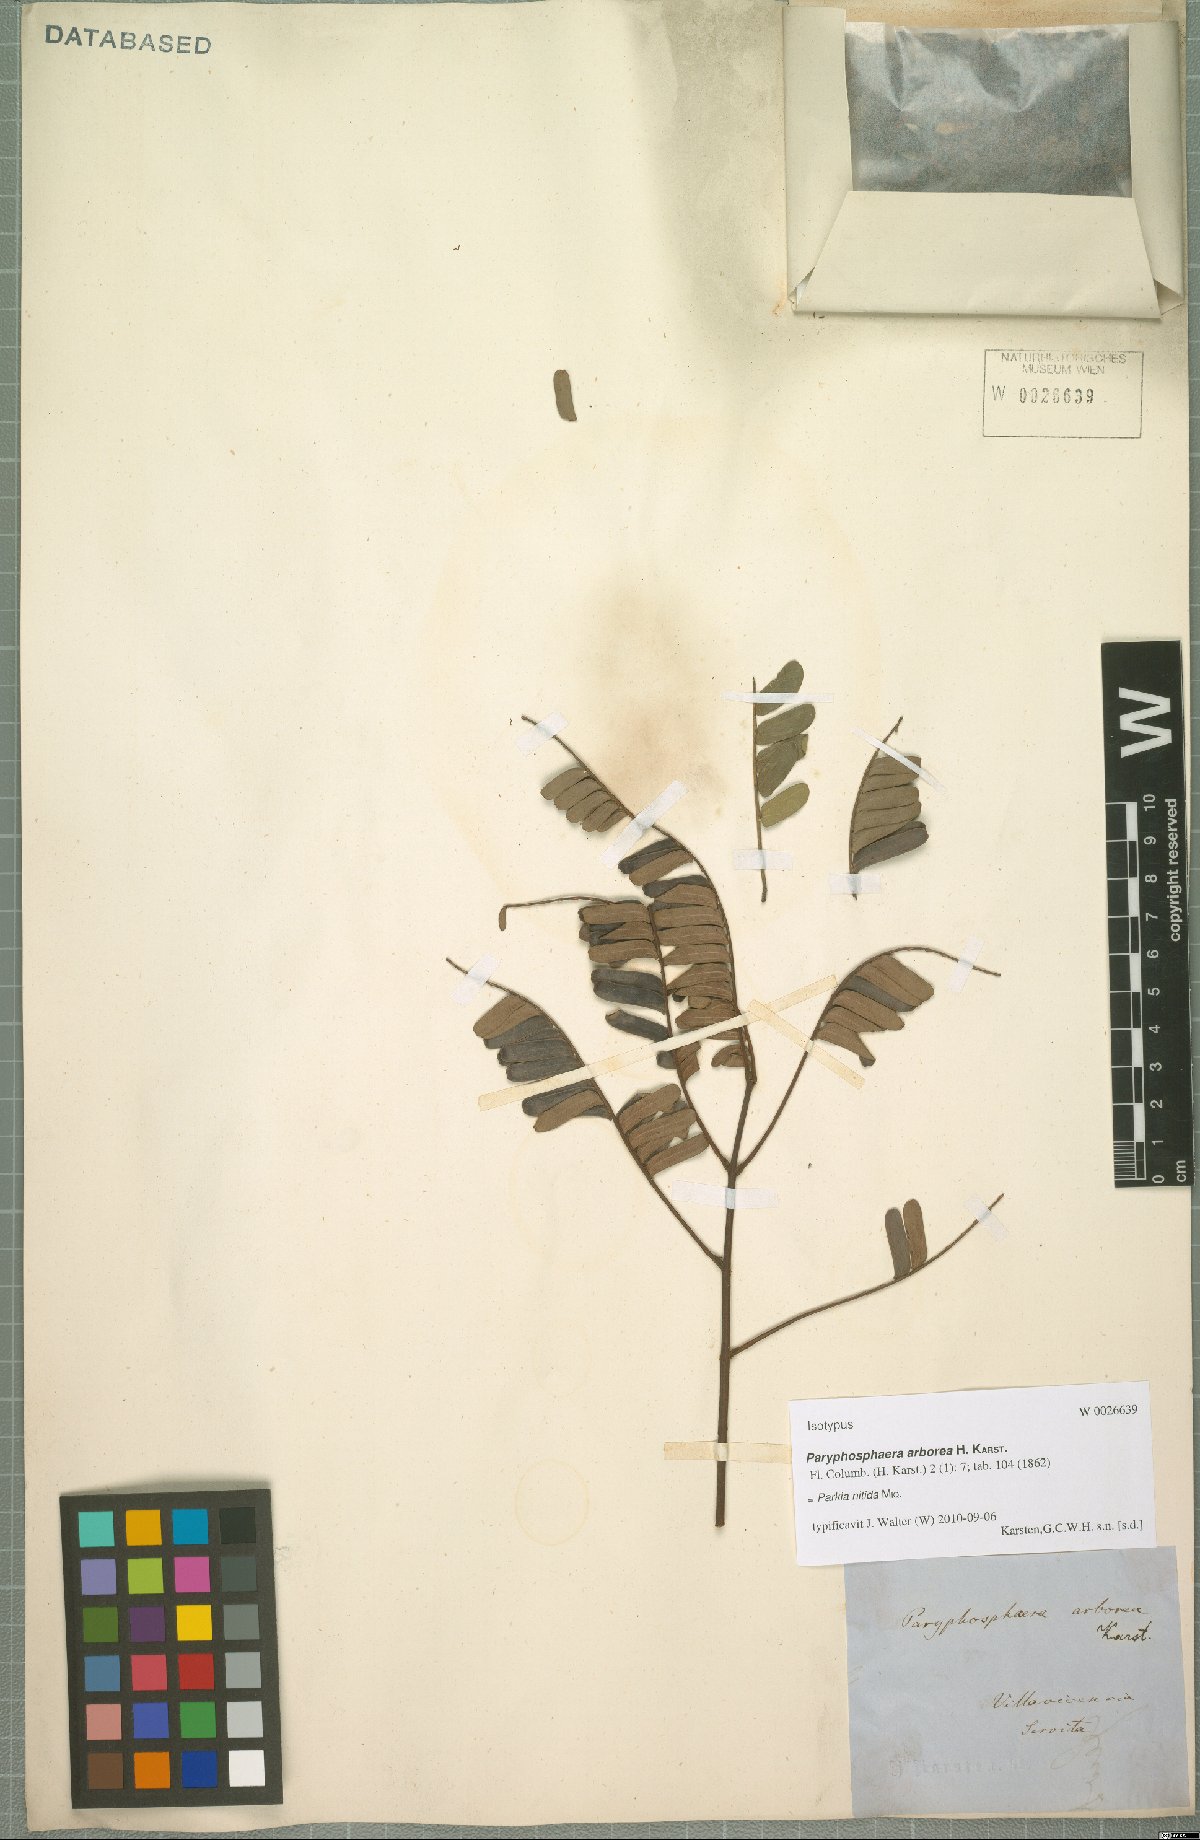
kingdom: Plantae
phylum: Tracheophyta
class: Magnoliopsida
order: Fabales
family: Fabaceae
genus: Parkia
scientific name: Parkia nitida
